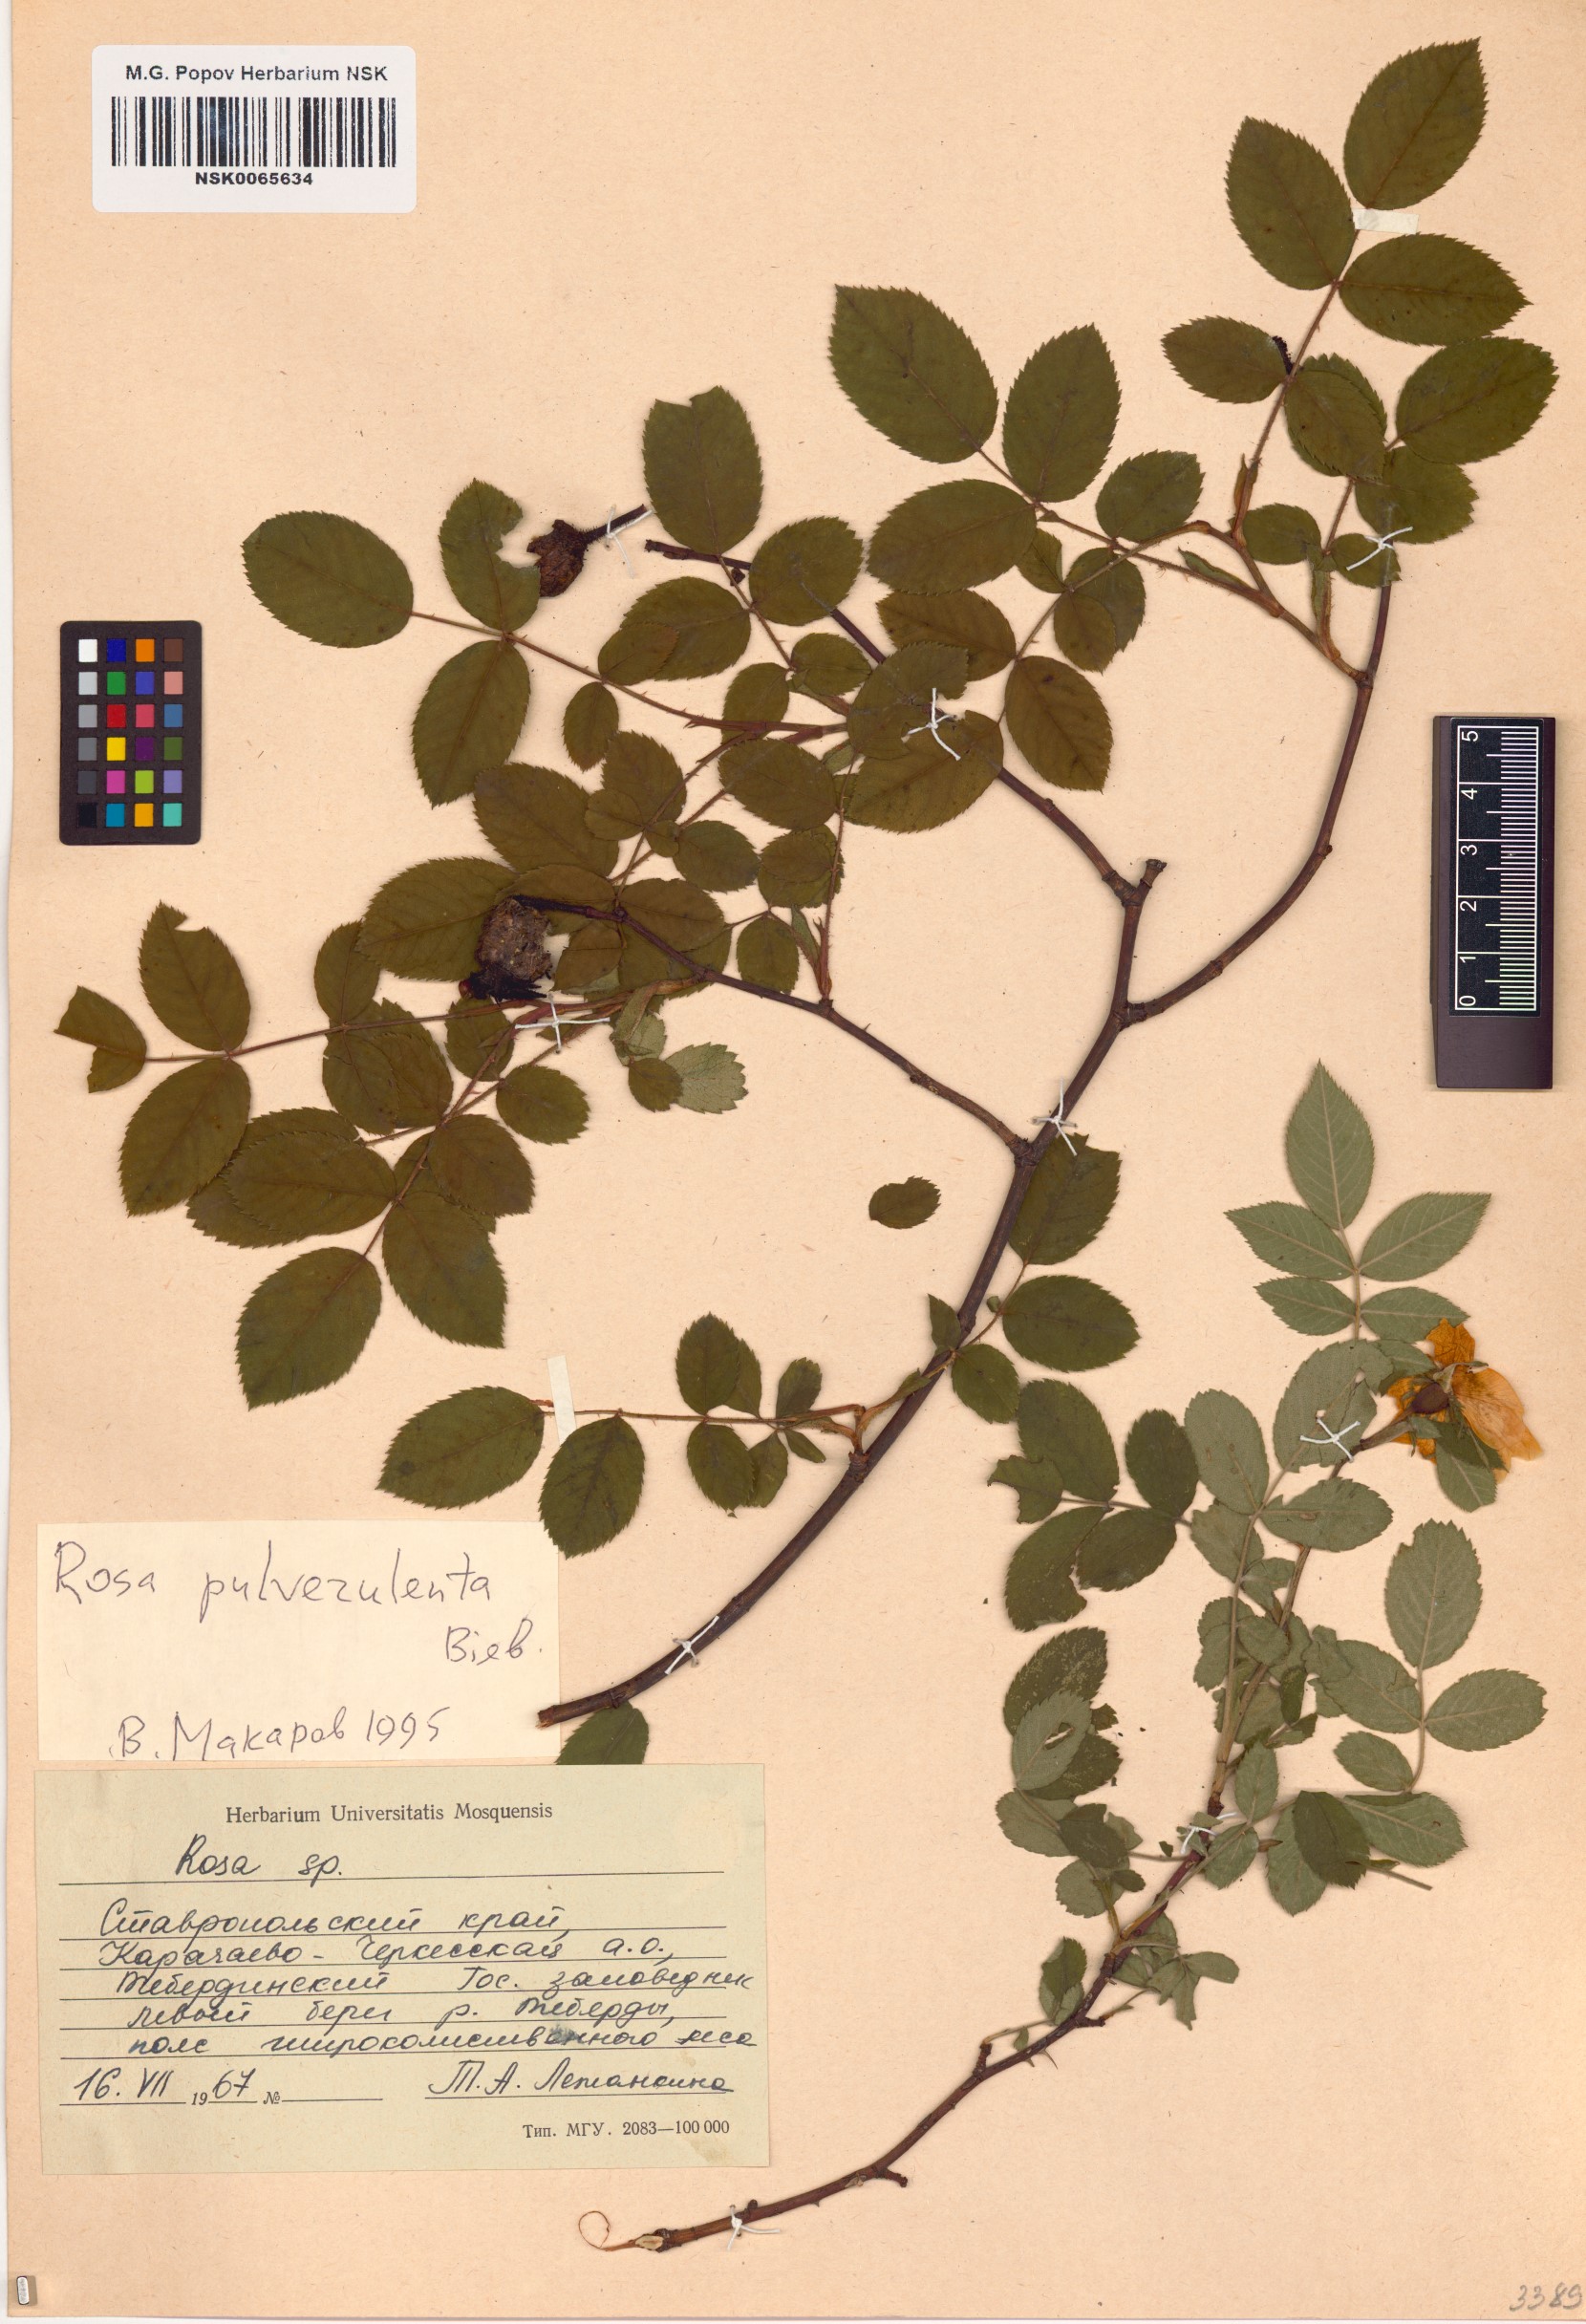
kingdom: Plantae
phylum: Tracheophyta
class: Magnoliopsida
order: Rosales
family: Rosaceae
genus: Rosa
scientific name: Rosa pulverulenta
